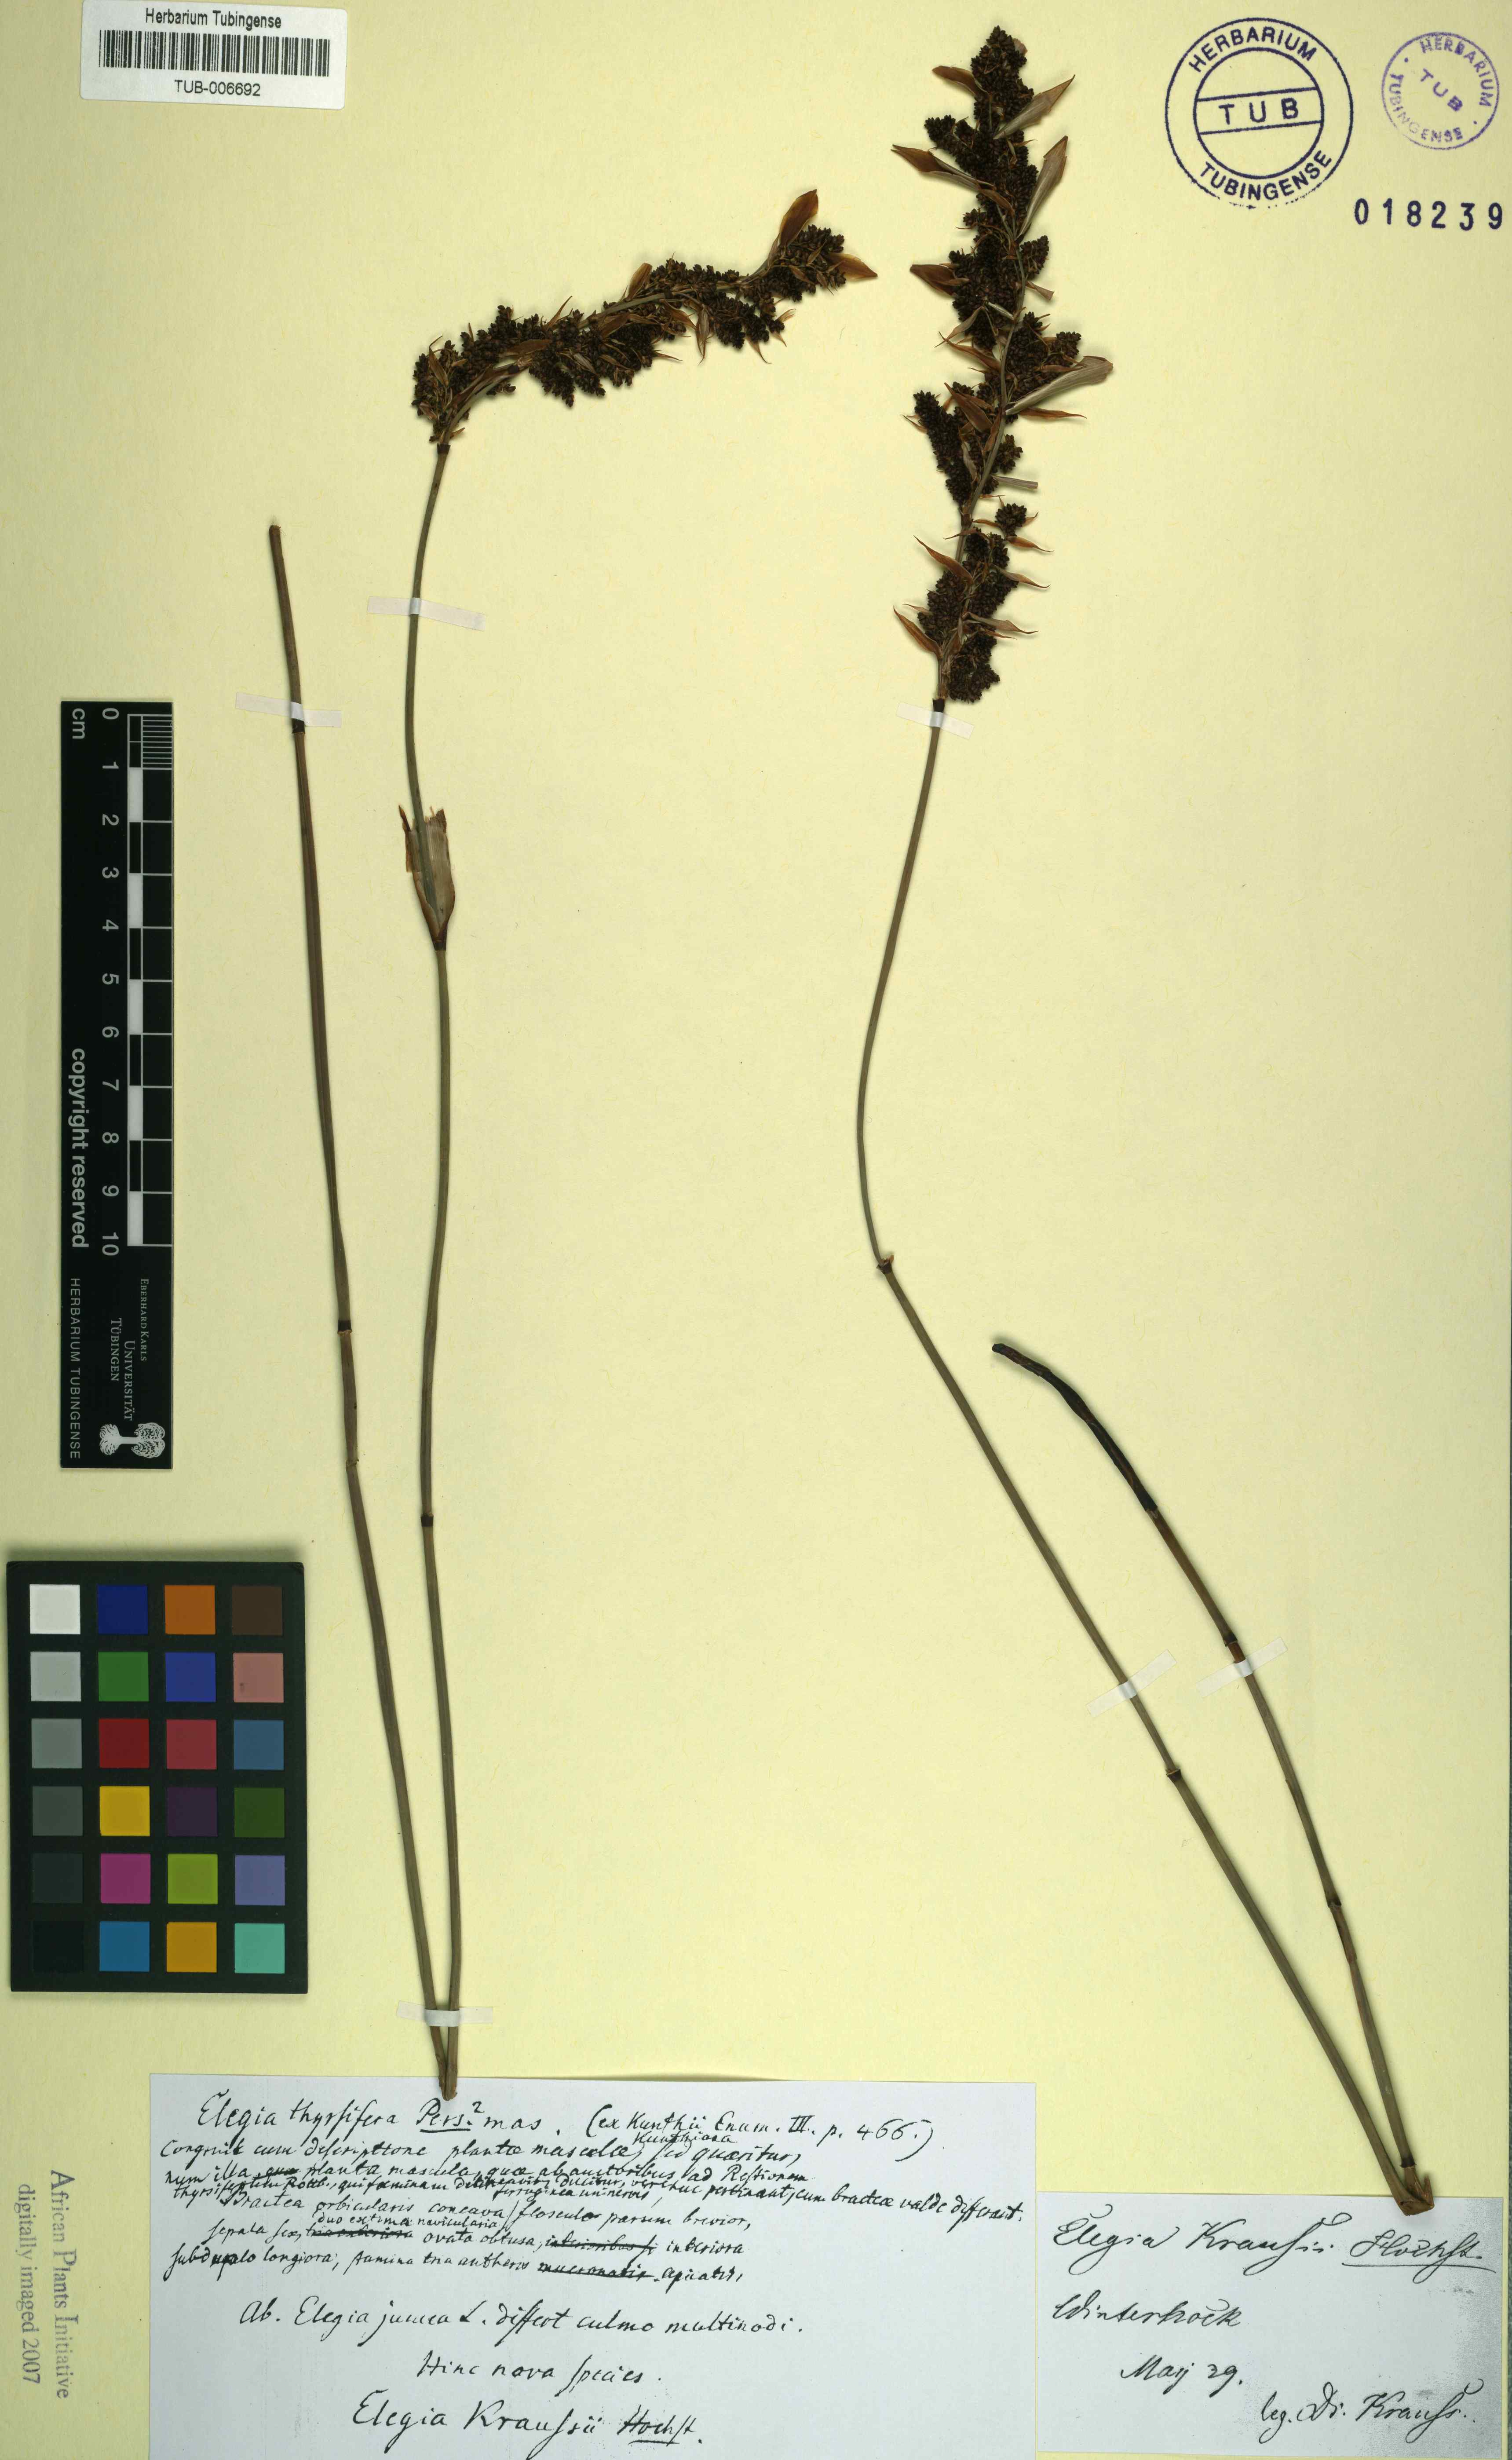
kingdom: Plantae
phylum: Tracheophyta
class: Liliopsida
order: Poales
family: Restionaceae
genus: Elegia
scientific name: Elegia juncea
